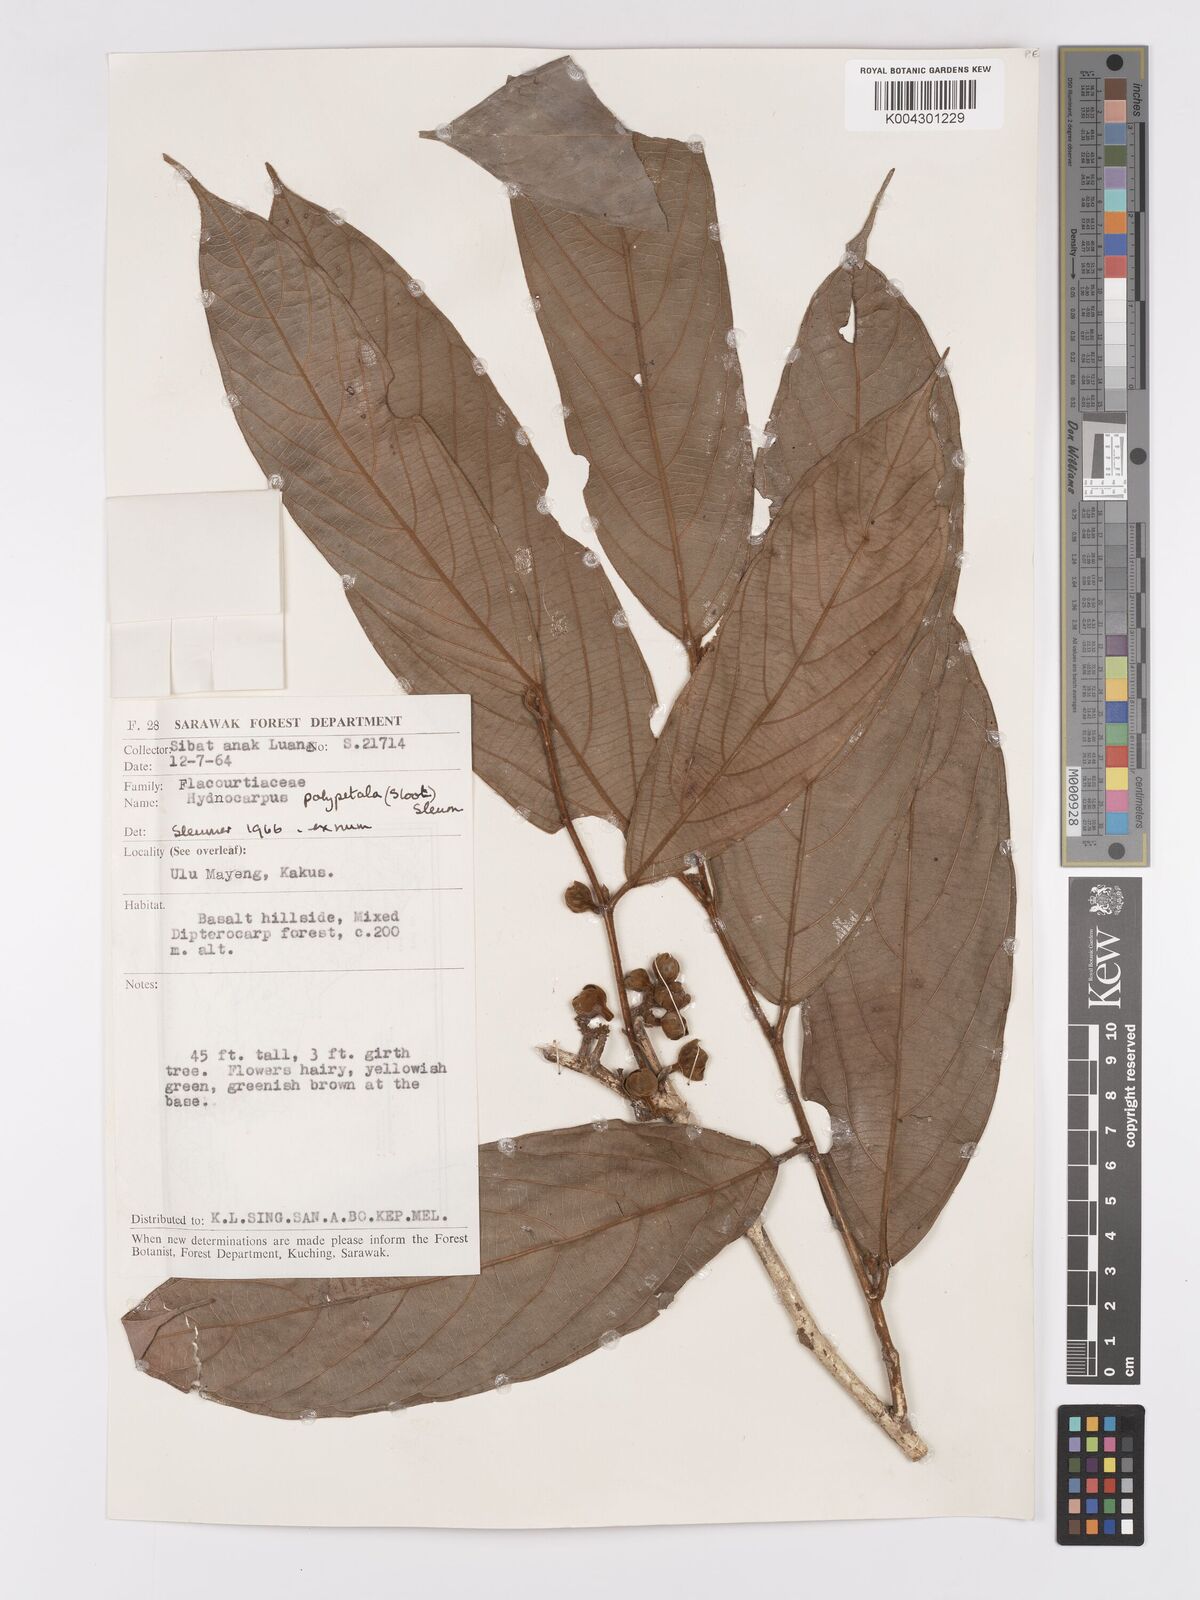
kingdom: Plantae
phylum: Tracheophyta
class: Magnoliopsida
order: Malpighiales
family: Achariaceae
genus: Hydnocarpus
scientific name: Hydnocarpus
